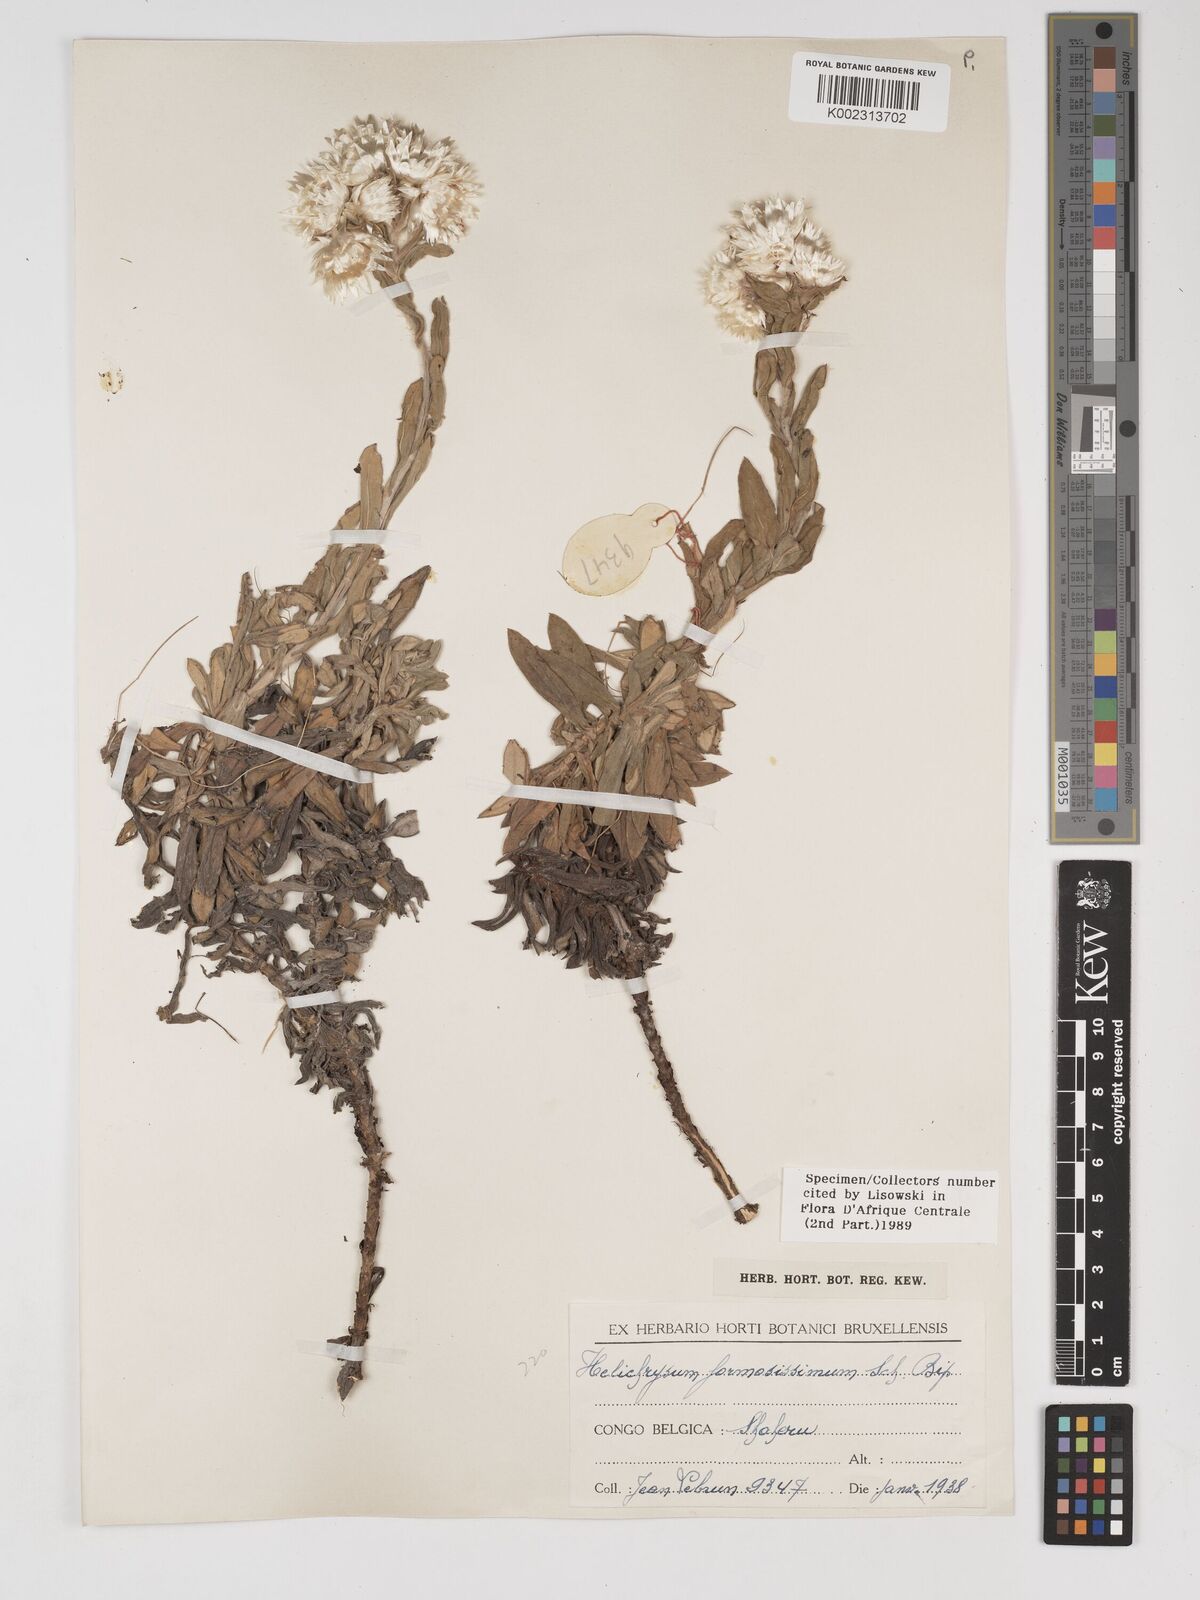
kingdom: Plantae
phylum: Tracheophyta
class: Magnoliopsida
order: Asterales
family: Asteraceae
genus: Helichrysum
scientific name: Helichrysum formosissimum
